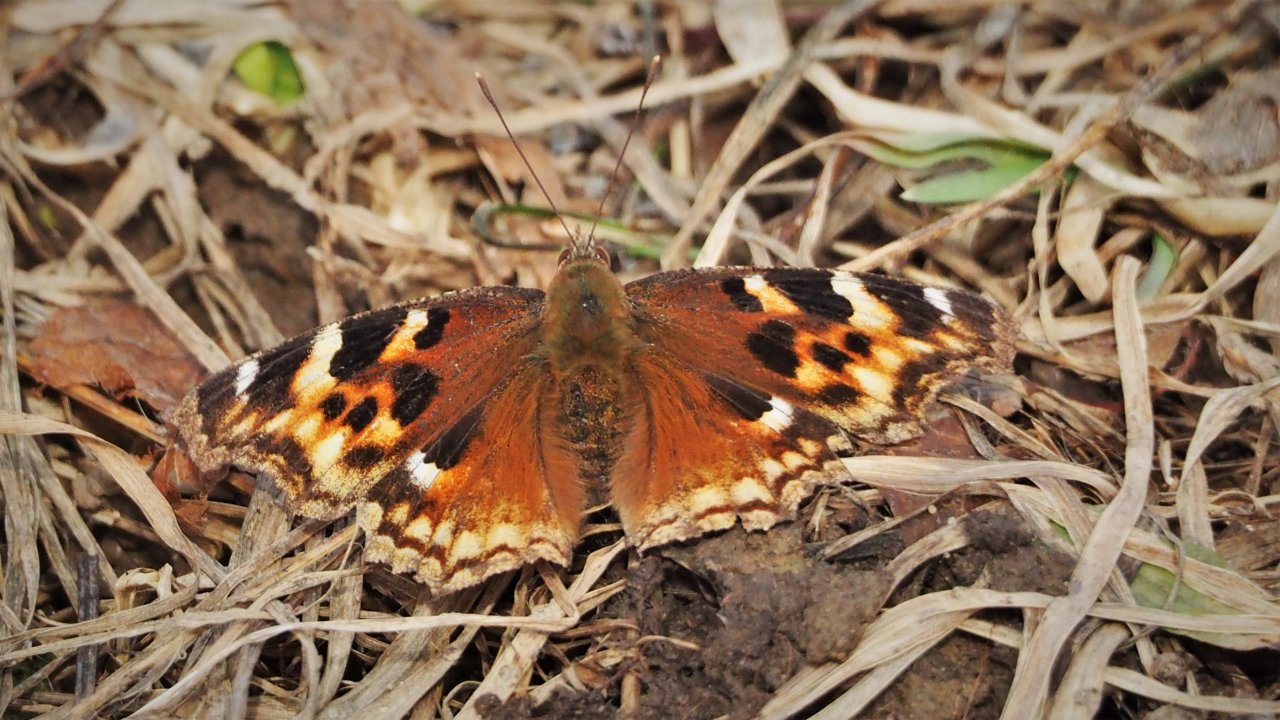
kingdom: Animalia
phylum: Arthropoda
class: Insecta
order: Lepidoptera
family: Nymphalidae
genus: Polygonia
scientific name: Polygonia vaualbum
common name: Compton Tortoiseshell
